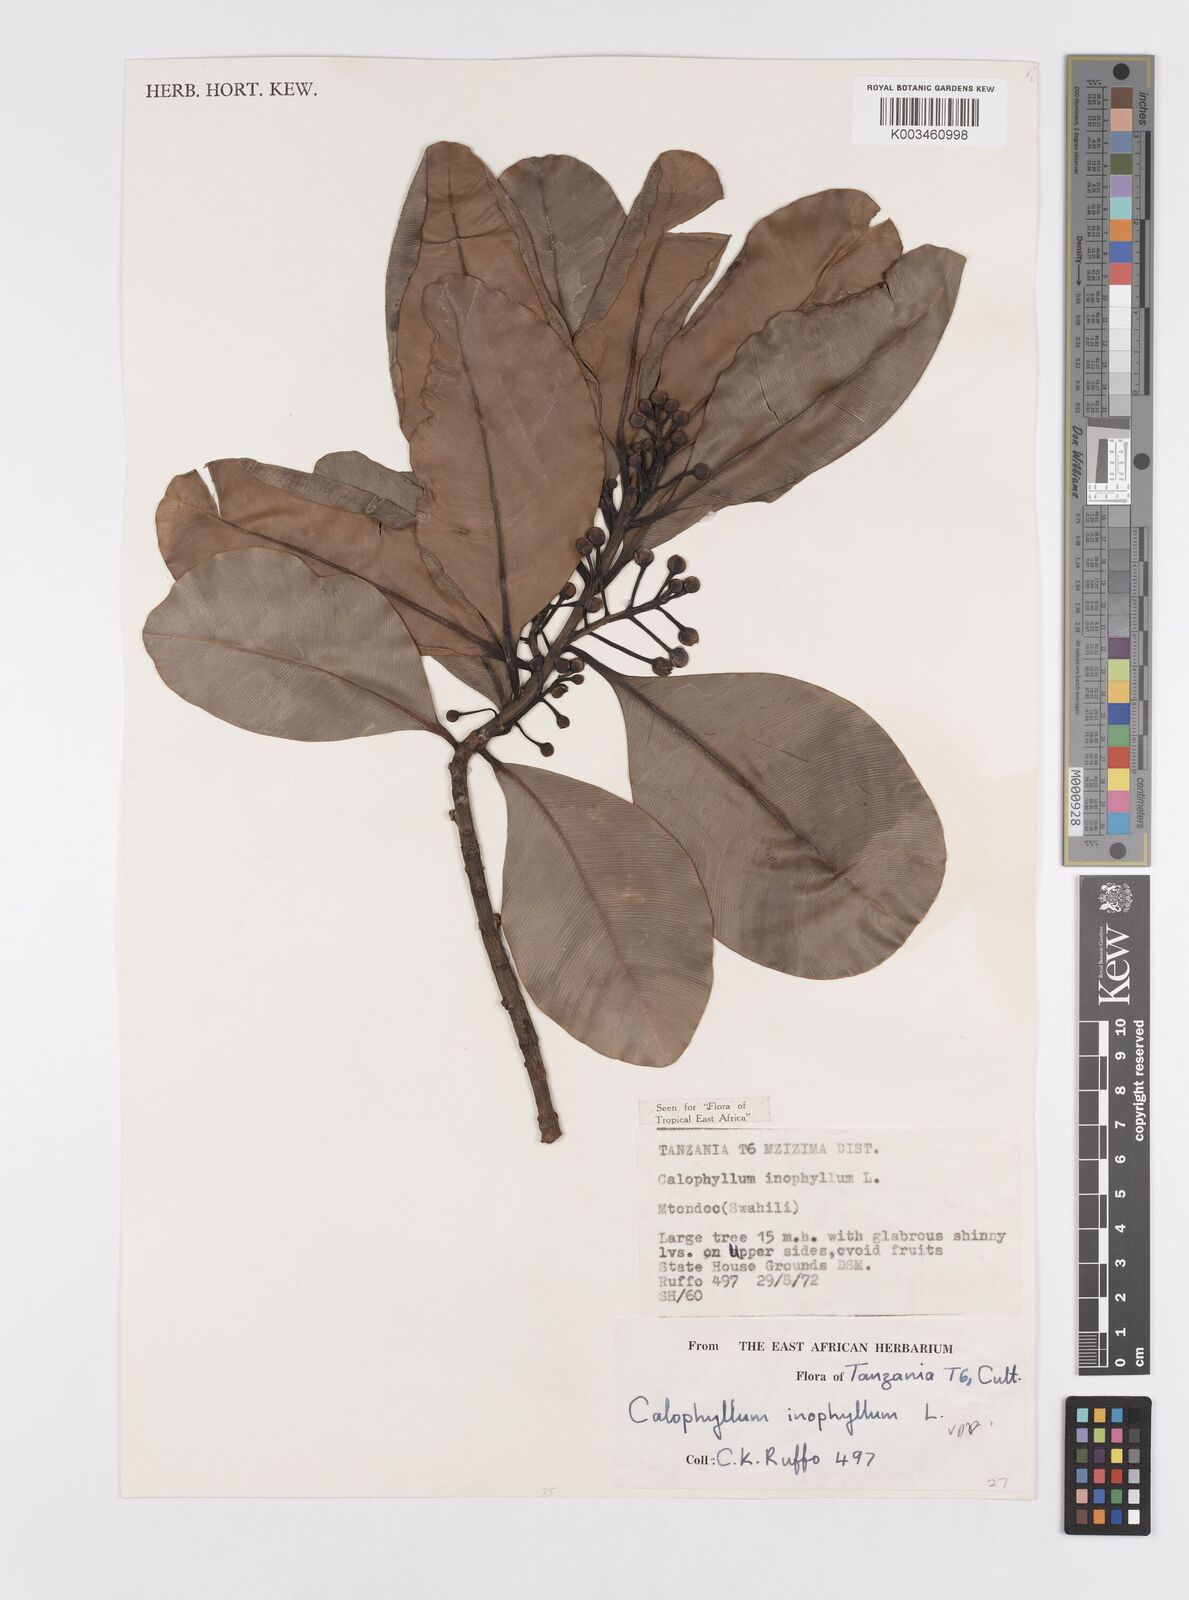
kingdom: Plantae
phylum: Tracheophyta
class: Magnoliopsida
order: Malpighiales
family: Calophyllaceae
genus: Calophyllum
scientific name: Calophyllum inophyllum
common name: Alexandrian laurel
